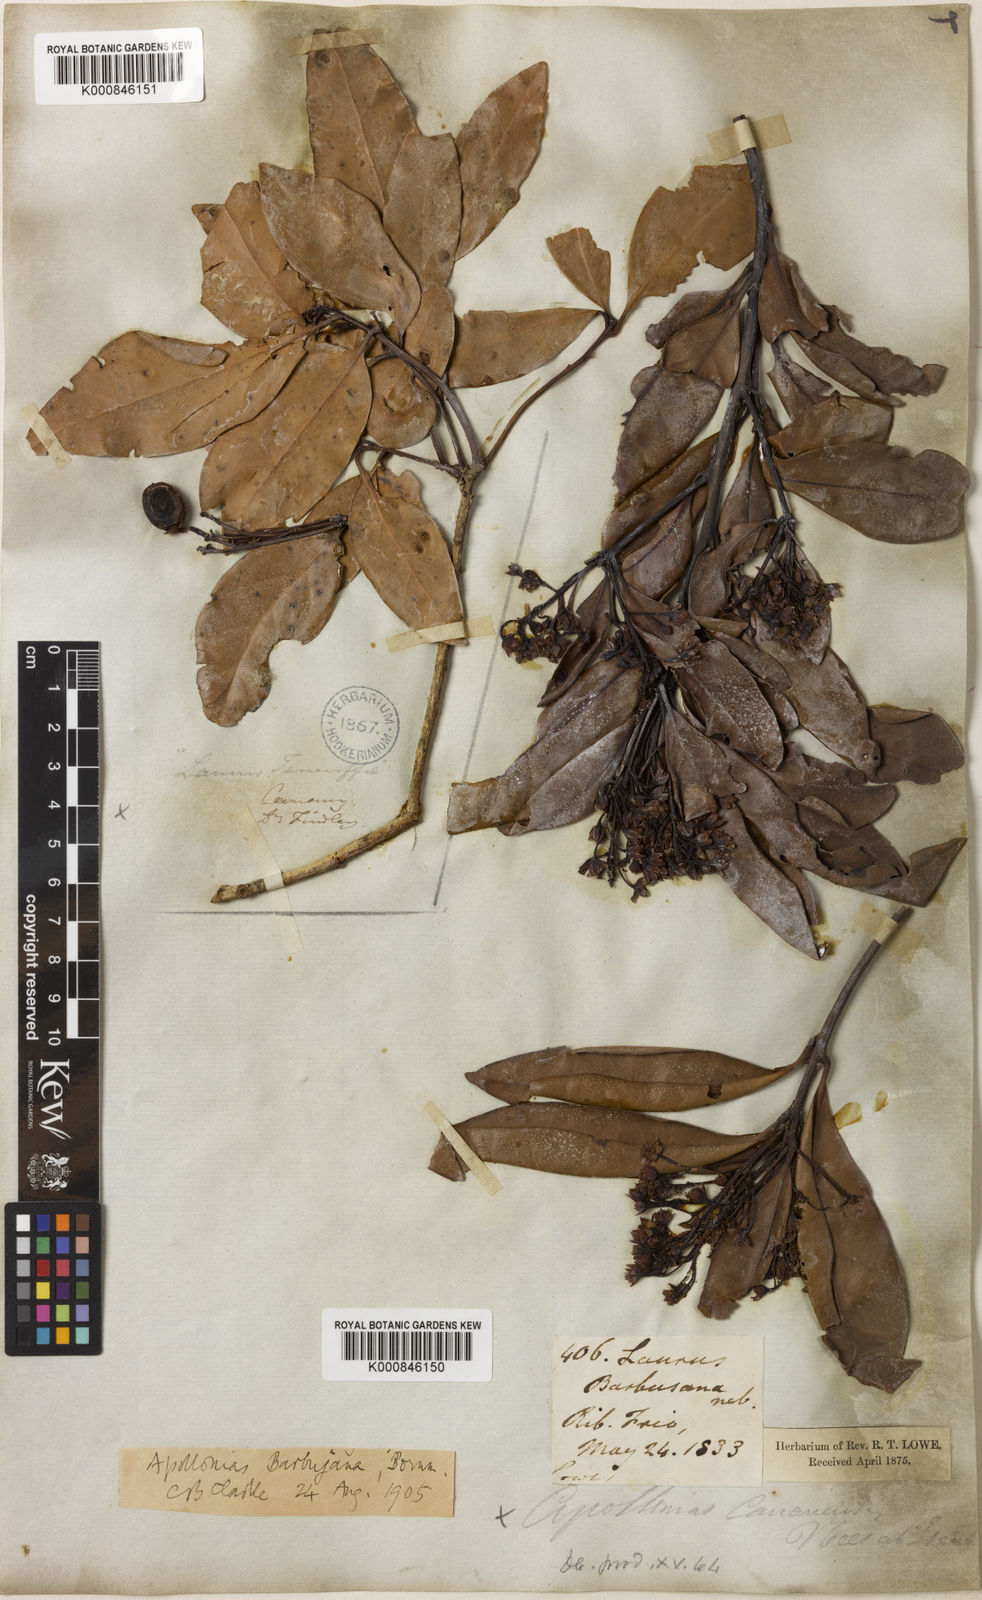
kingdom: Plantae
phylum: Tracheophyta
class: Magnoliopsida
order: Laurales
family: Lauraceae
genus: Apollonias
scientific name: Apollonias barbujana
